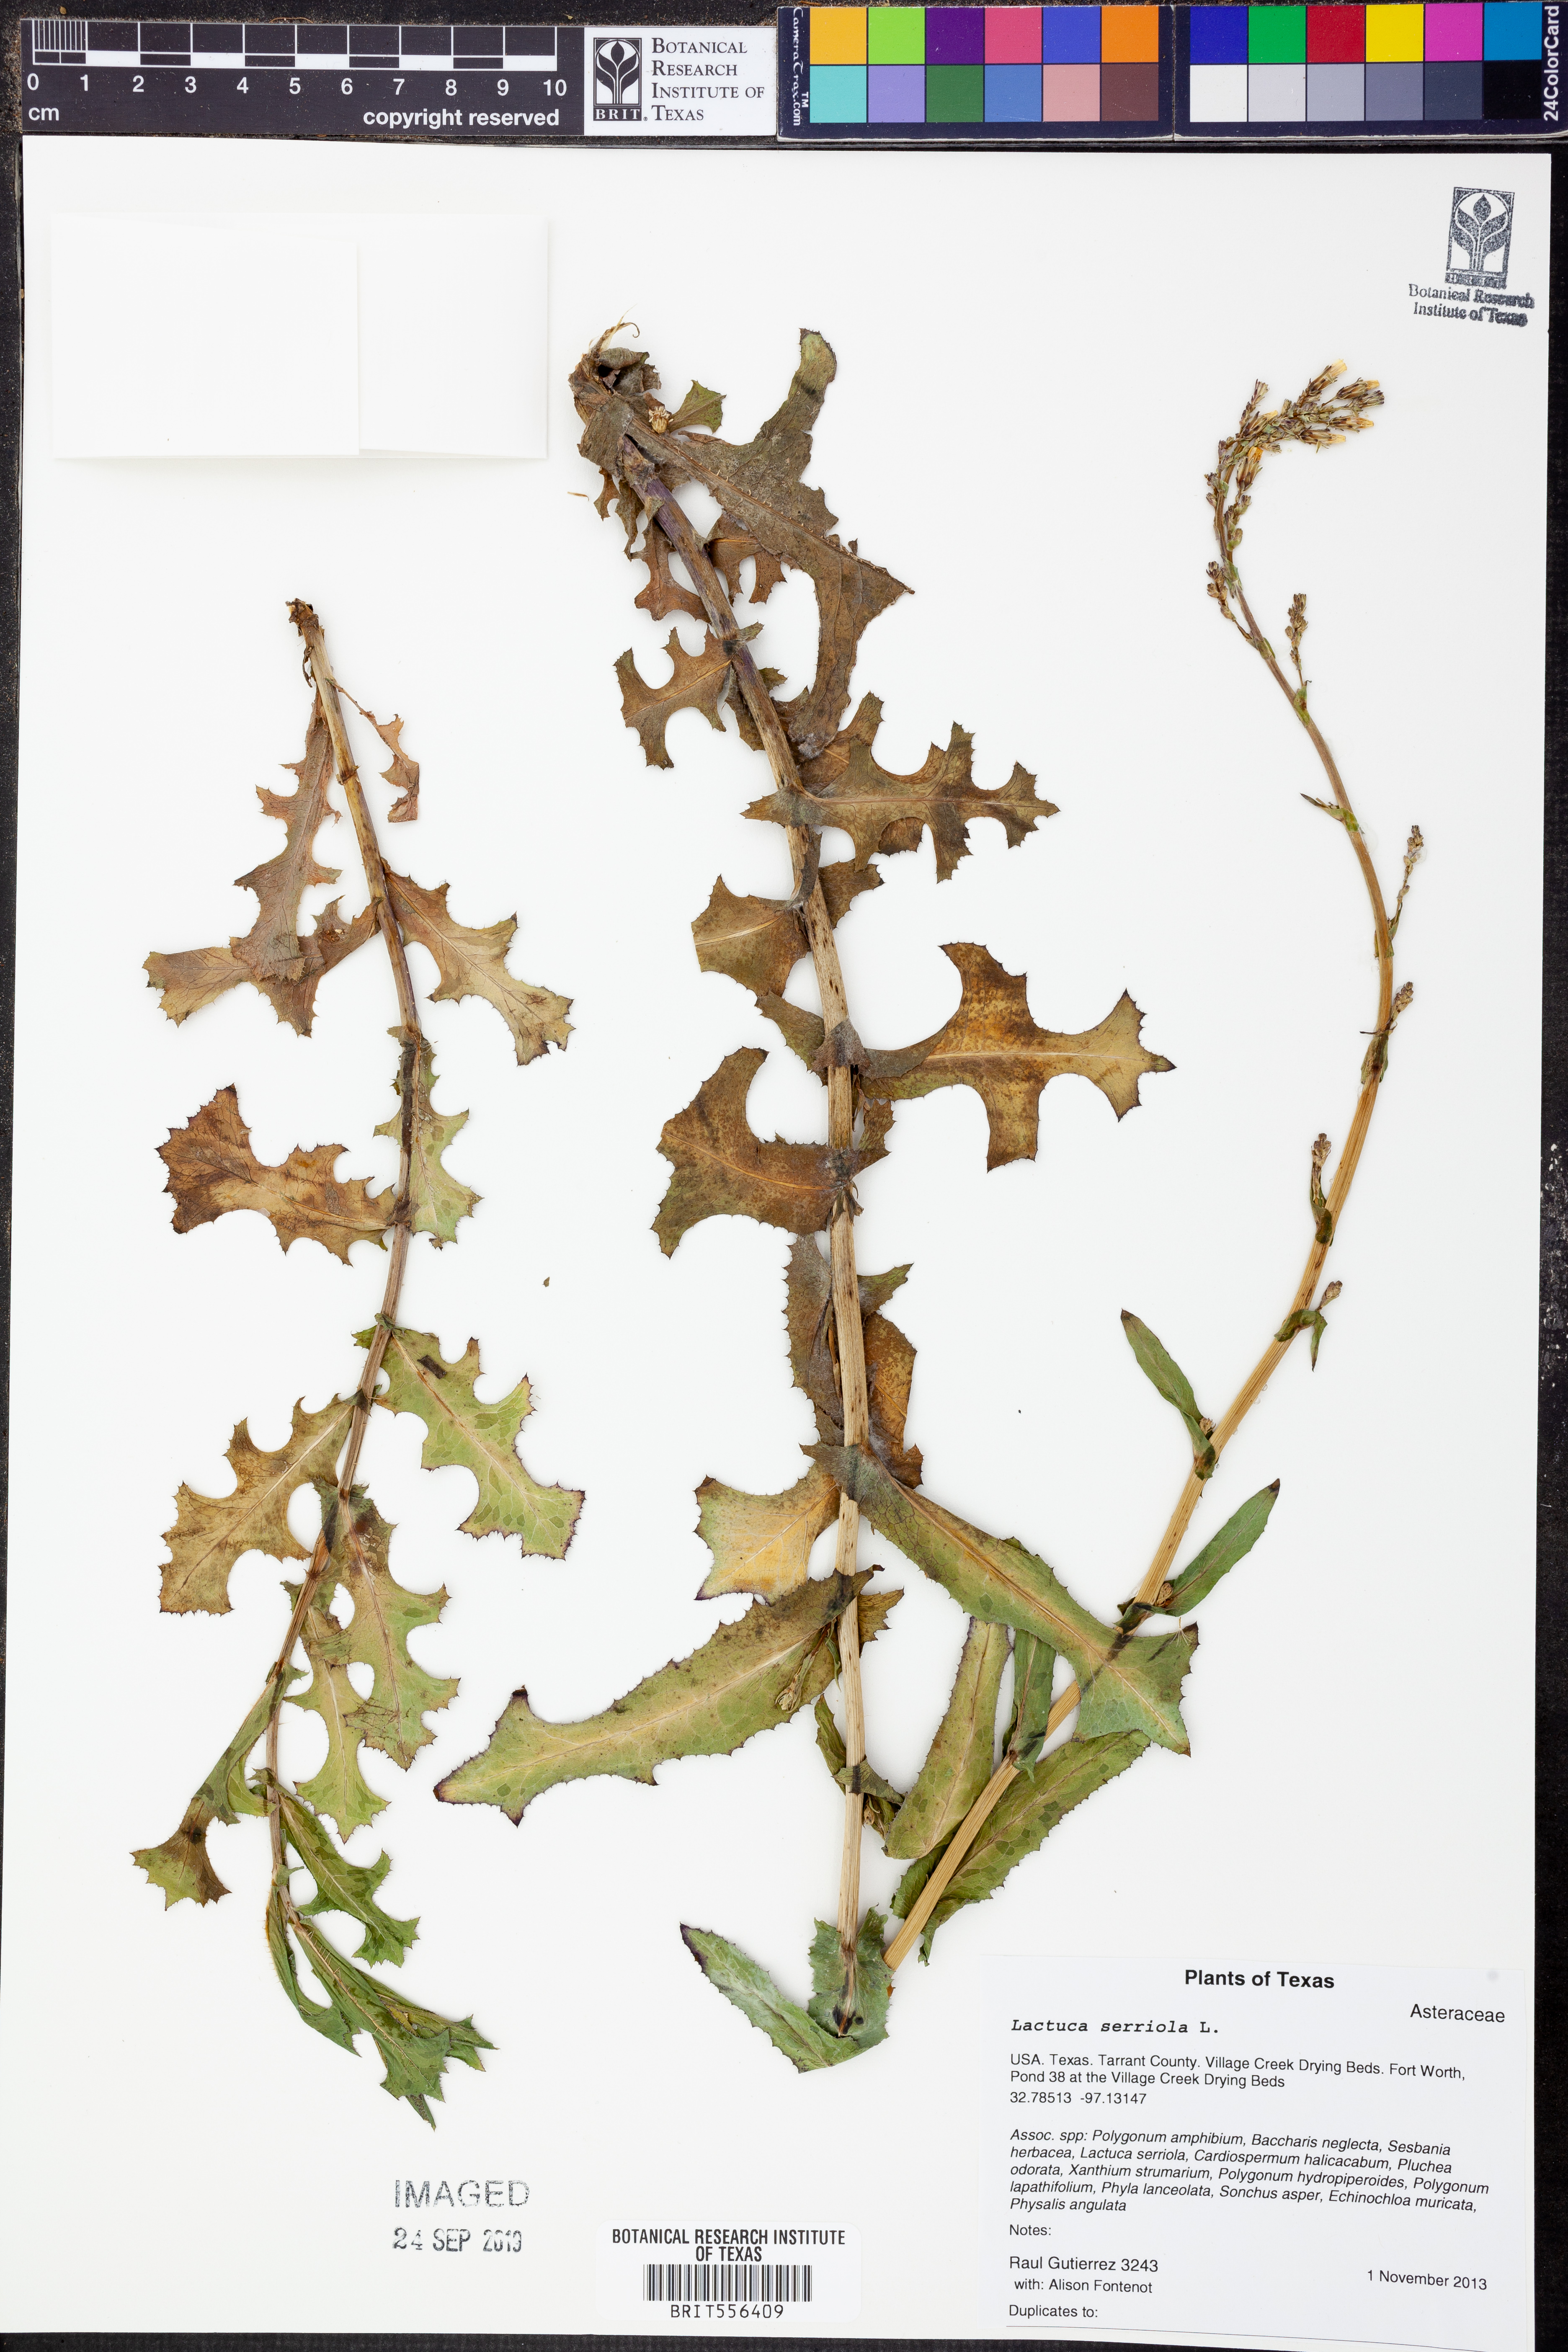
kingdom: Plantae
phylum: Tracheophyta
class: Magnoliopsida
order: Asterales
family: Asteraceae
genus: Lactuca
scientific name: Lactuca serriola
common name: Prickly lettuce
